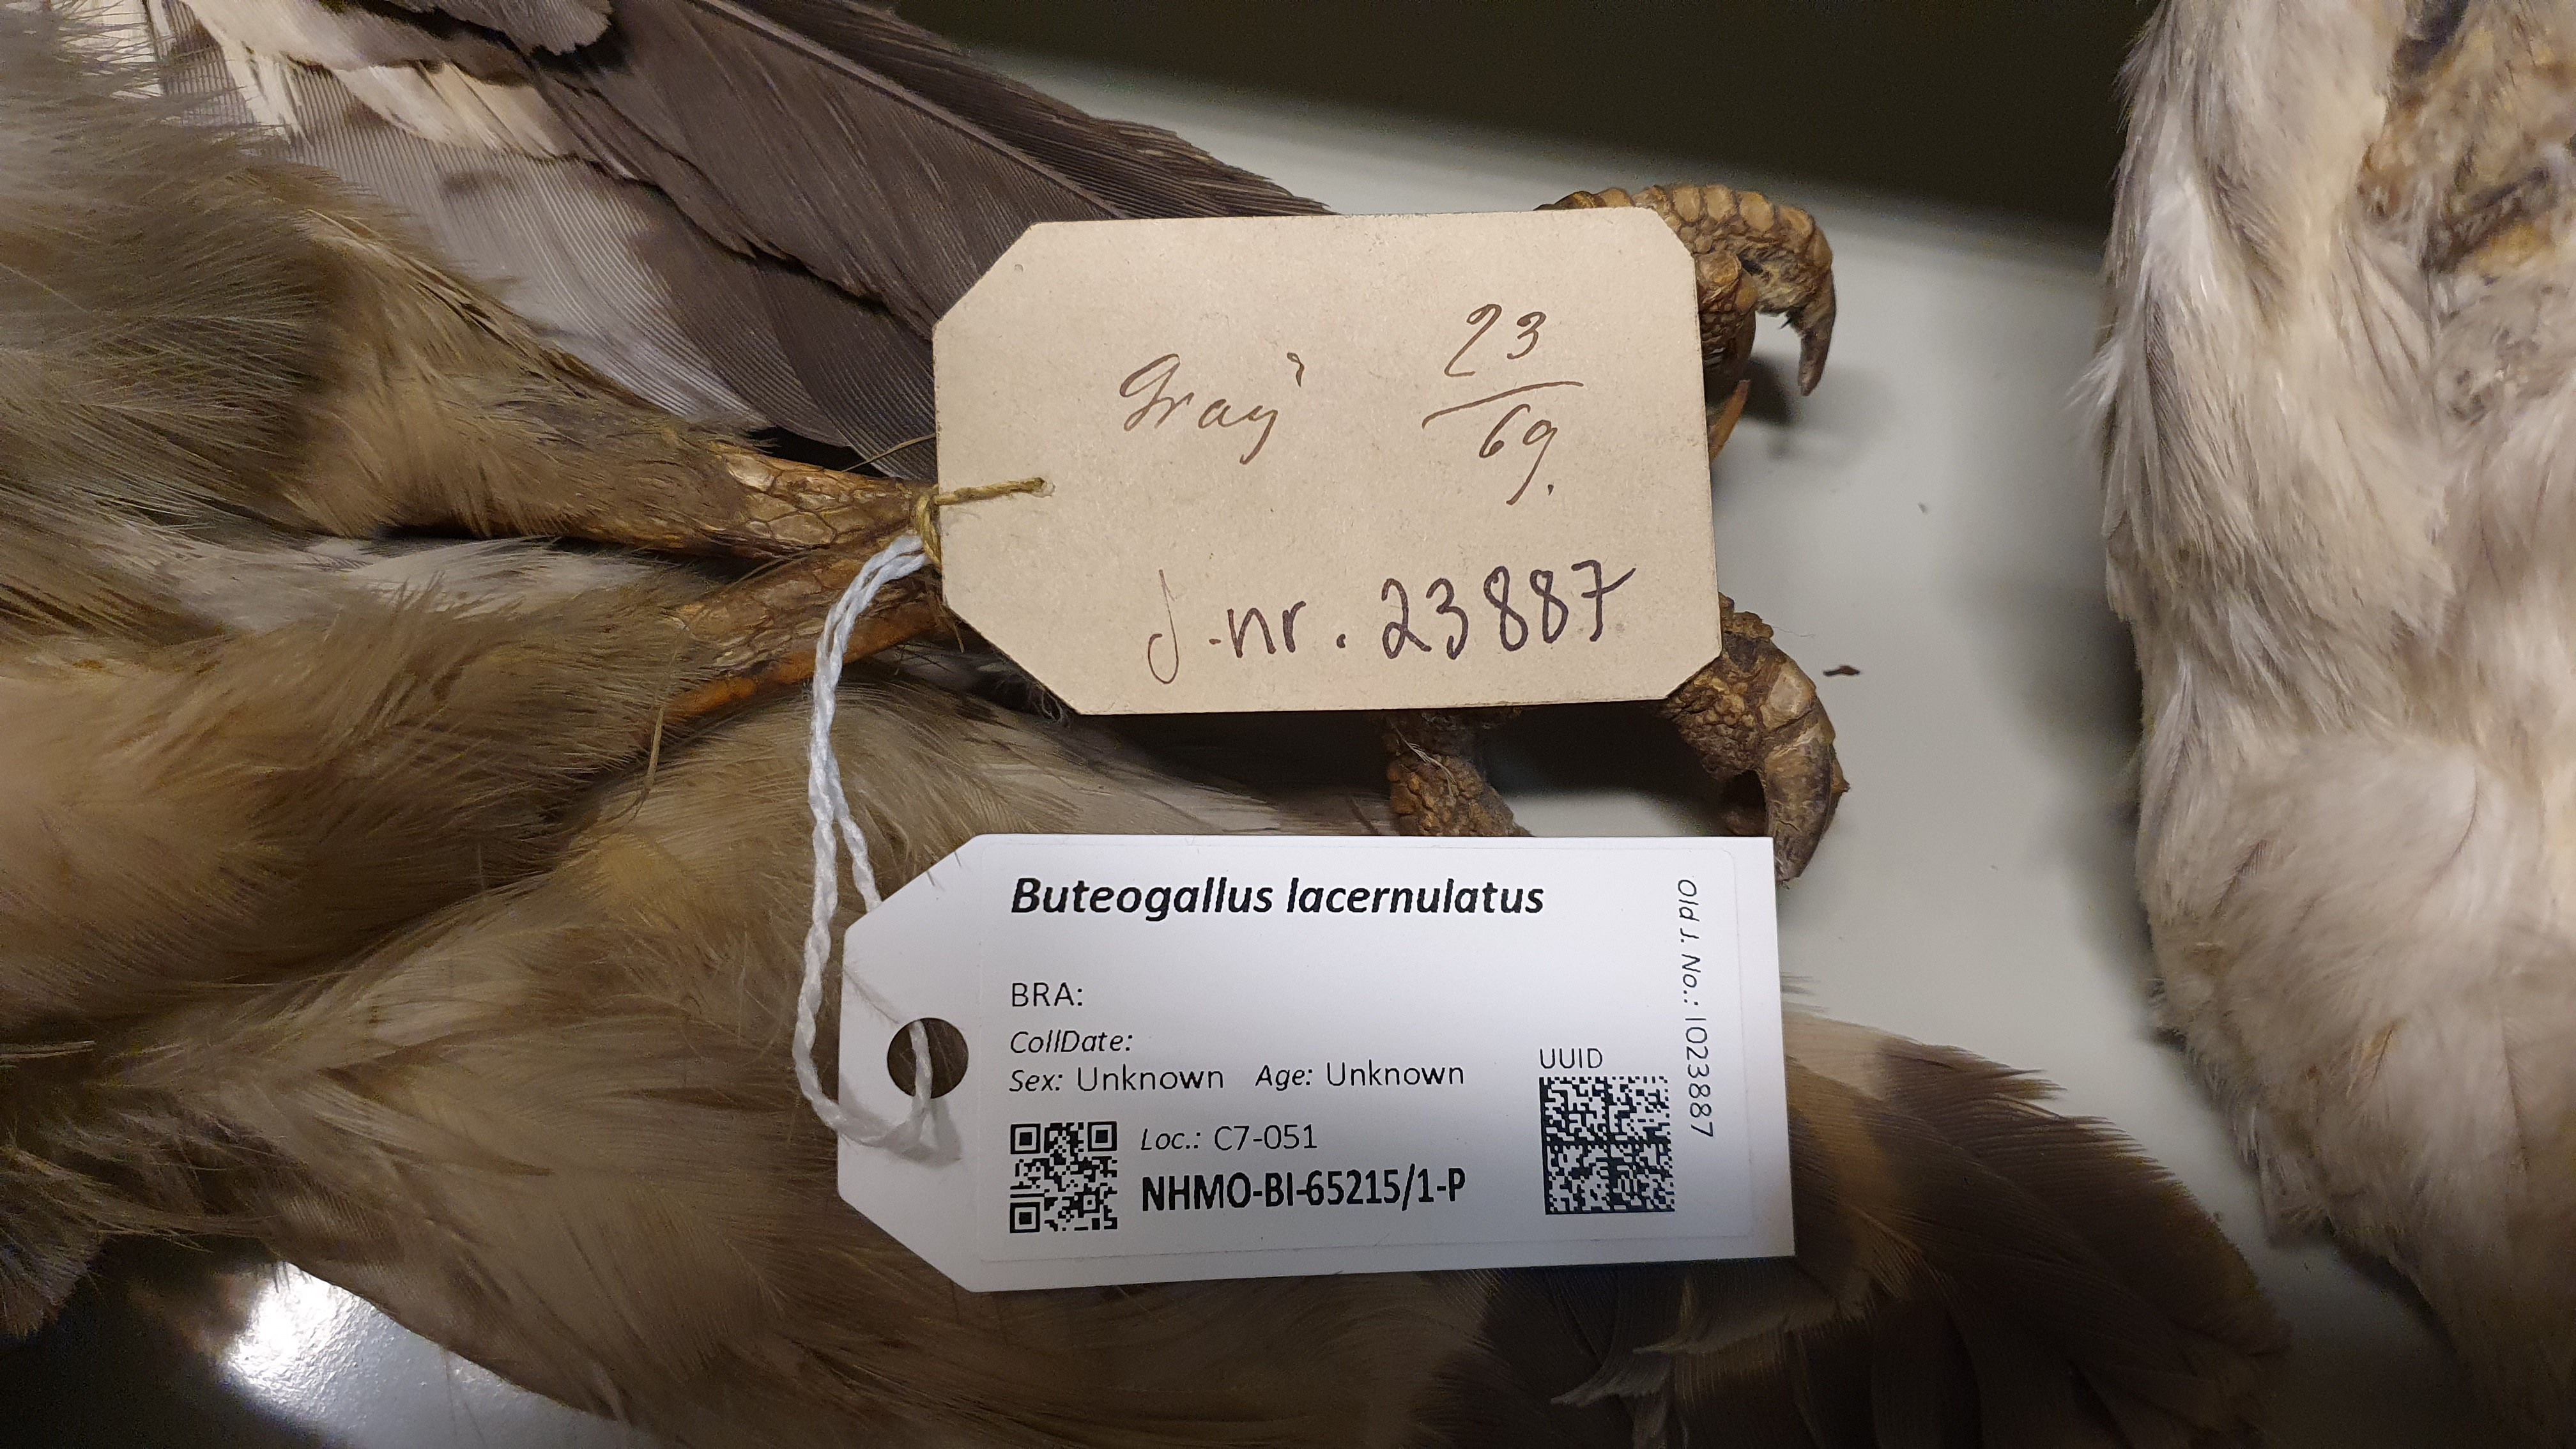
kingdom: Animalia
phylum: Chordata
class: Aves
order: Accipitriformes
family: Accipitridae
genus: Leucopternis
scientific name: Leucopternis lacernulatus
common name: White-necked hawk
